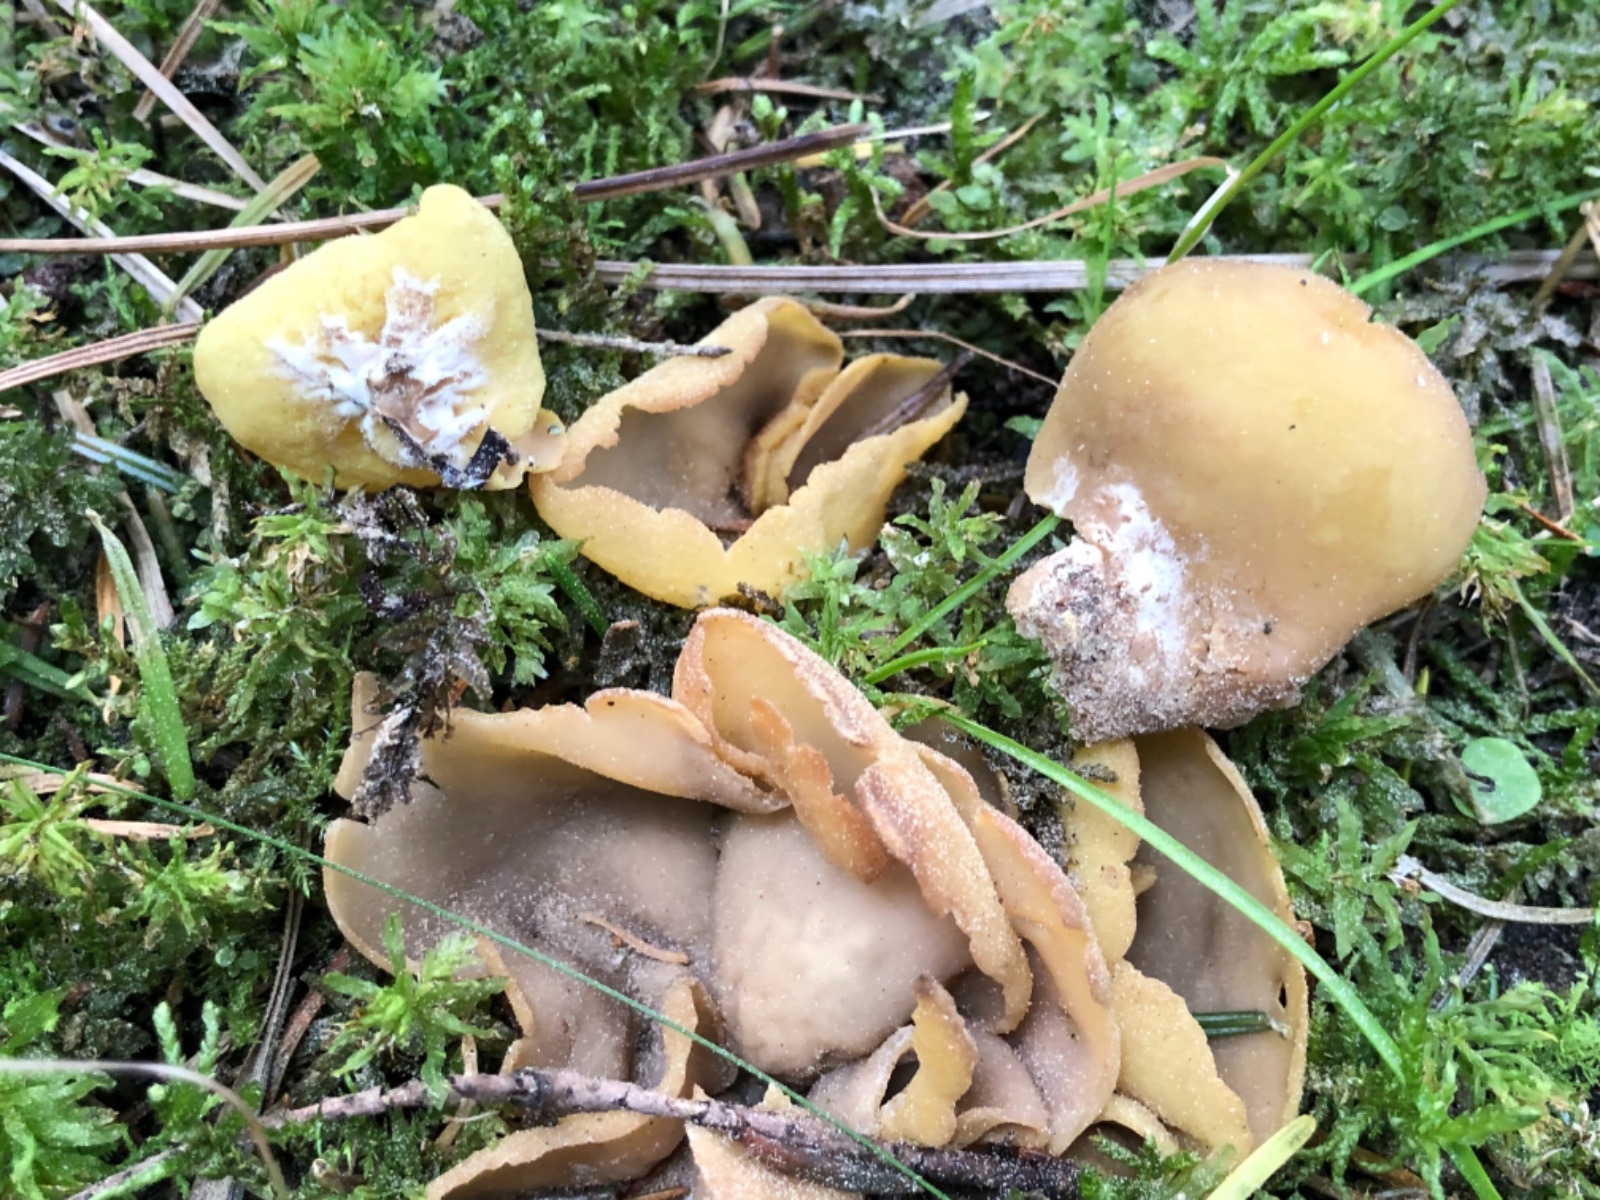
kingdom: Fungi
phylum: Ascomycota
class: Pezizomycetes
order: Pezizales
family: Otideaceae
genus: Otidea
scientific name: Otidea
